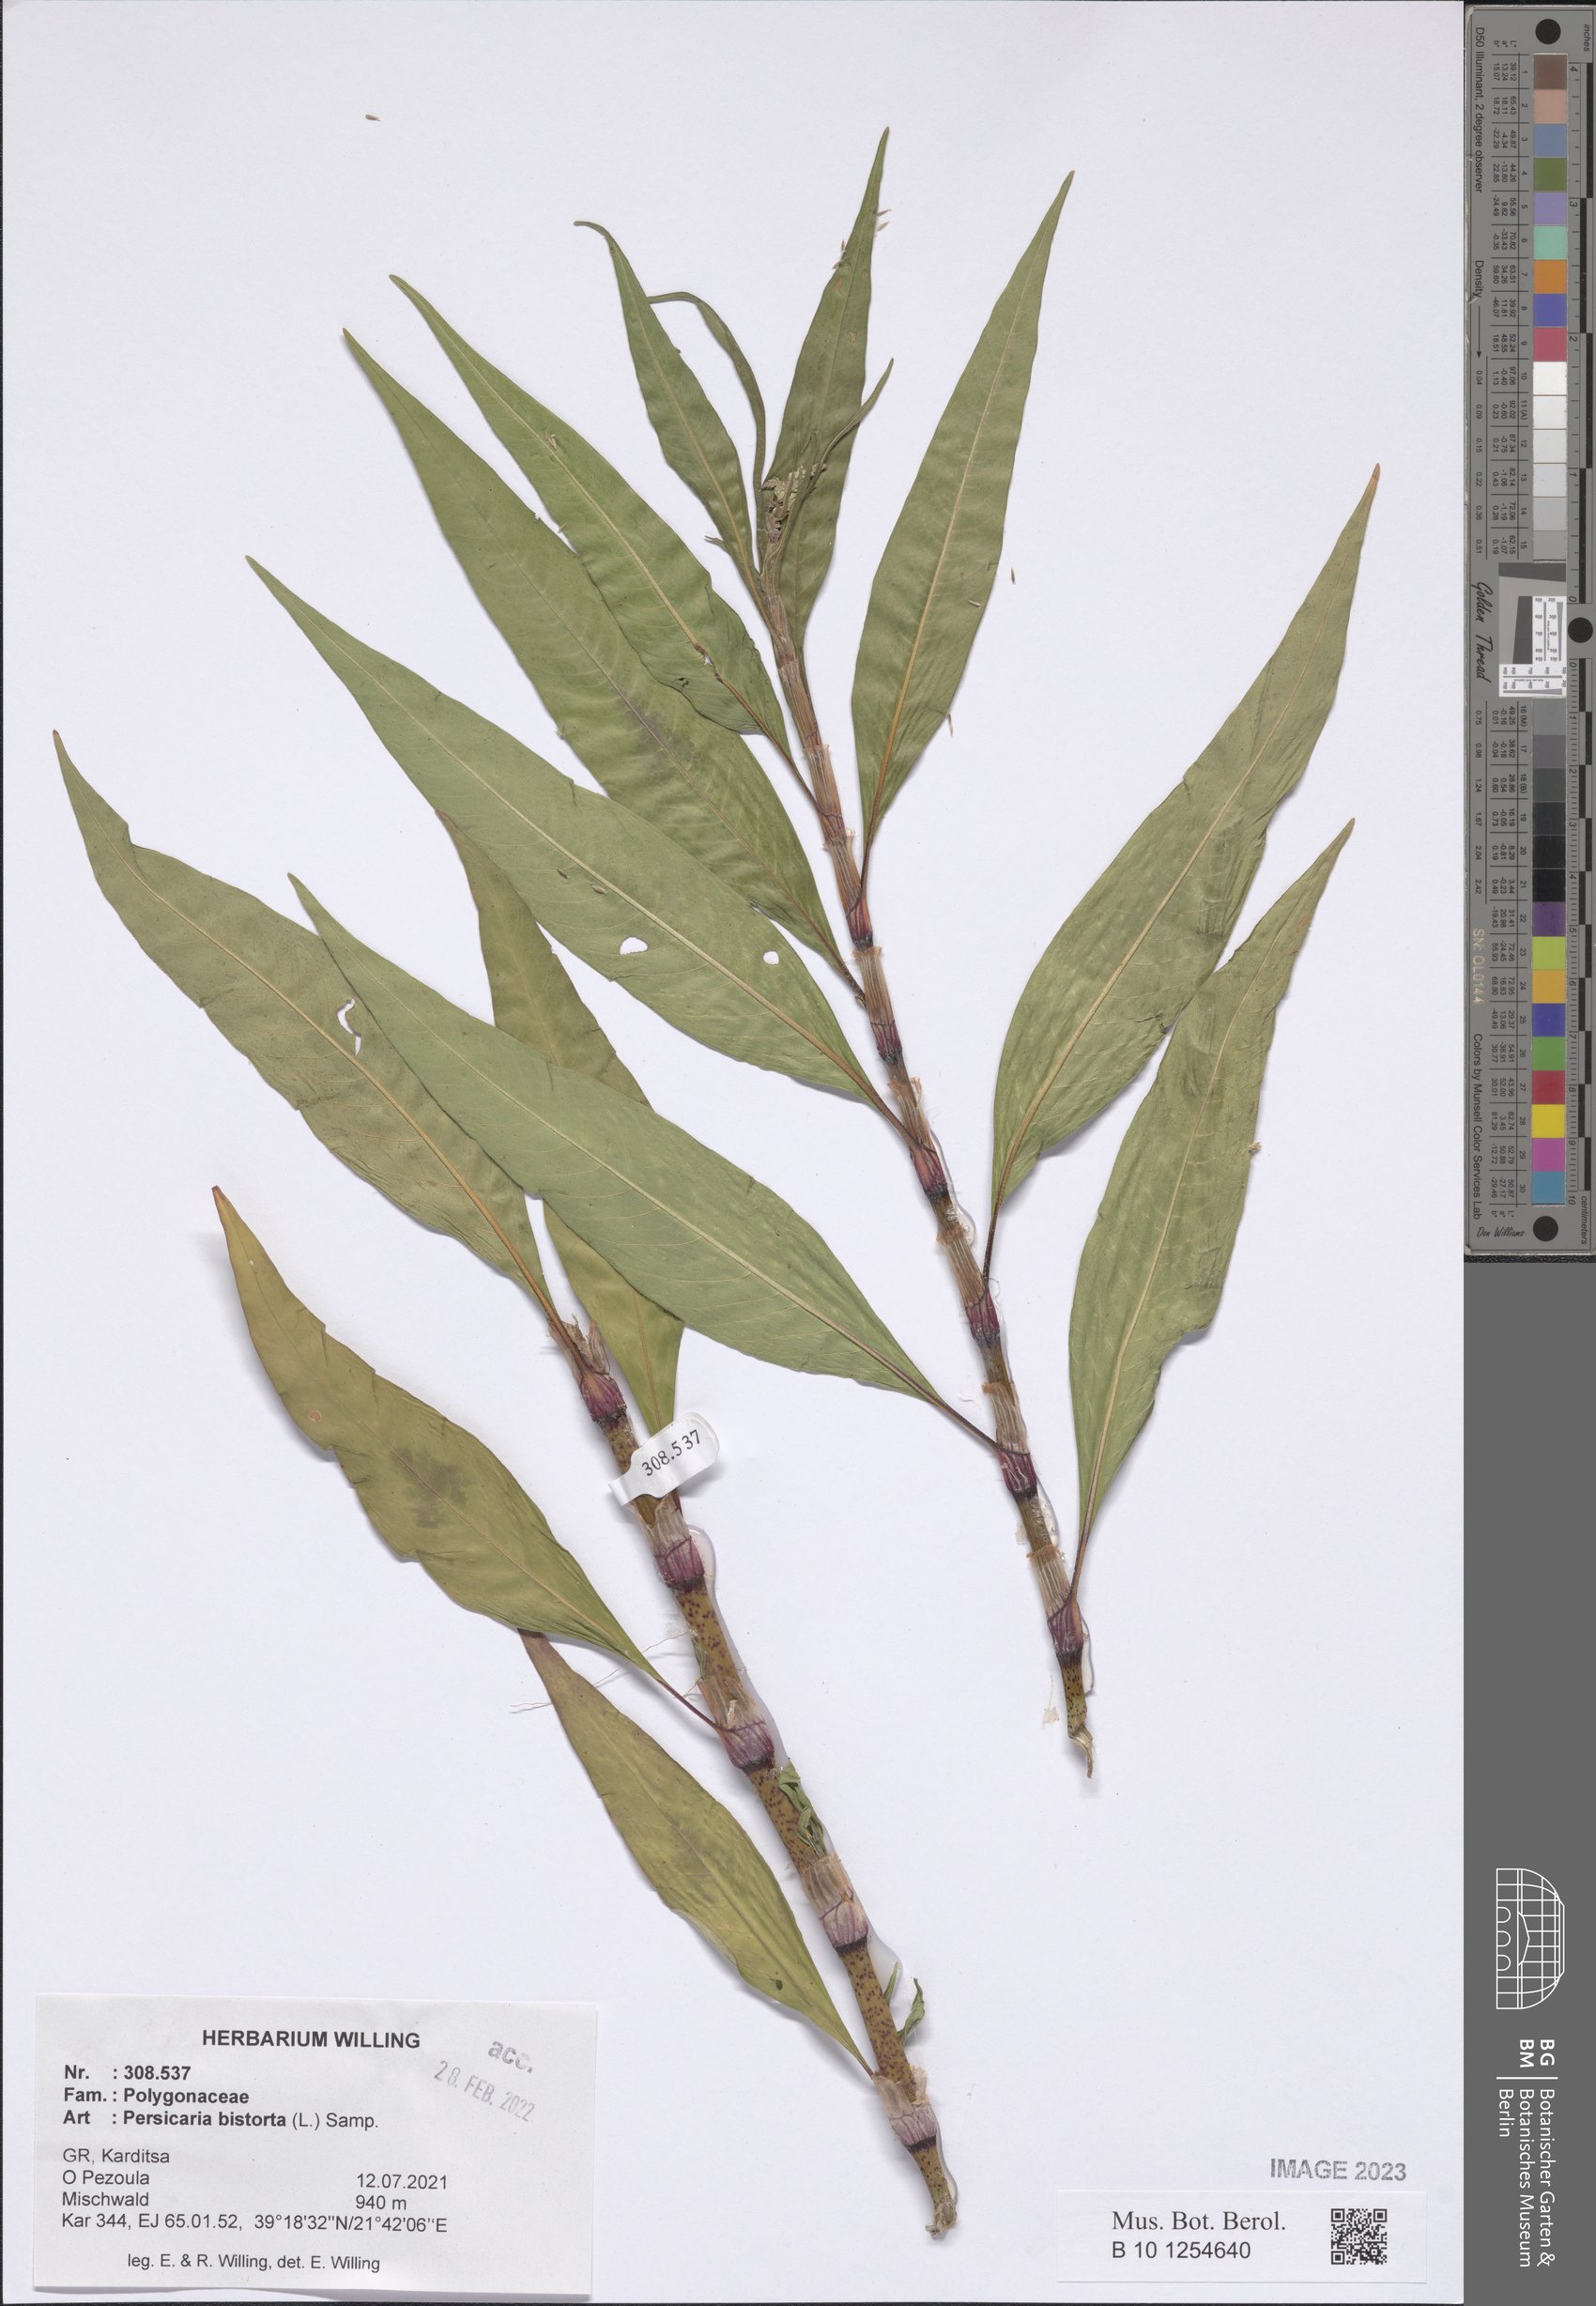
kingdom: Plantae
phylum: Tracheophyta
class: Magnoliopsida
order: Caryophyllales
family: Polygonaceae
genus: Bistorta
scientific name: Bistorta officinalis
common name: Common bistort
